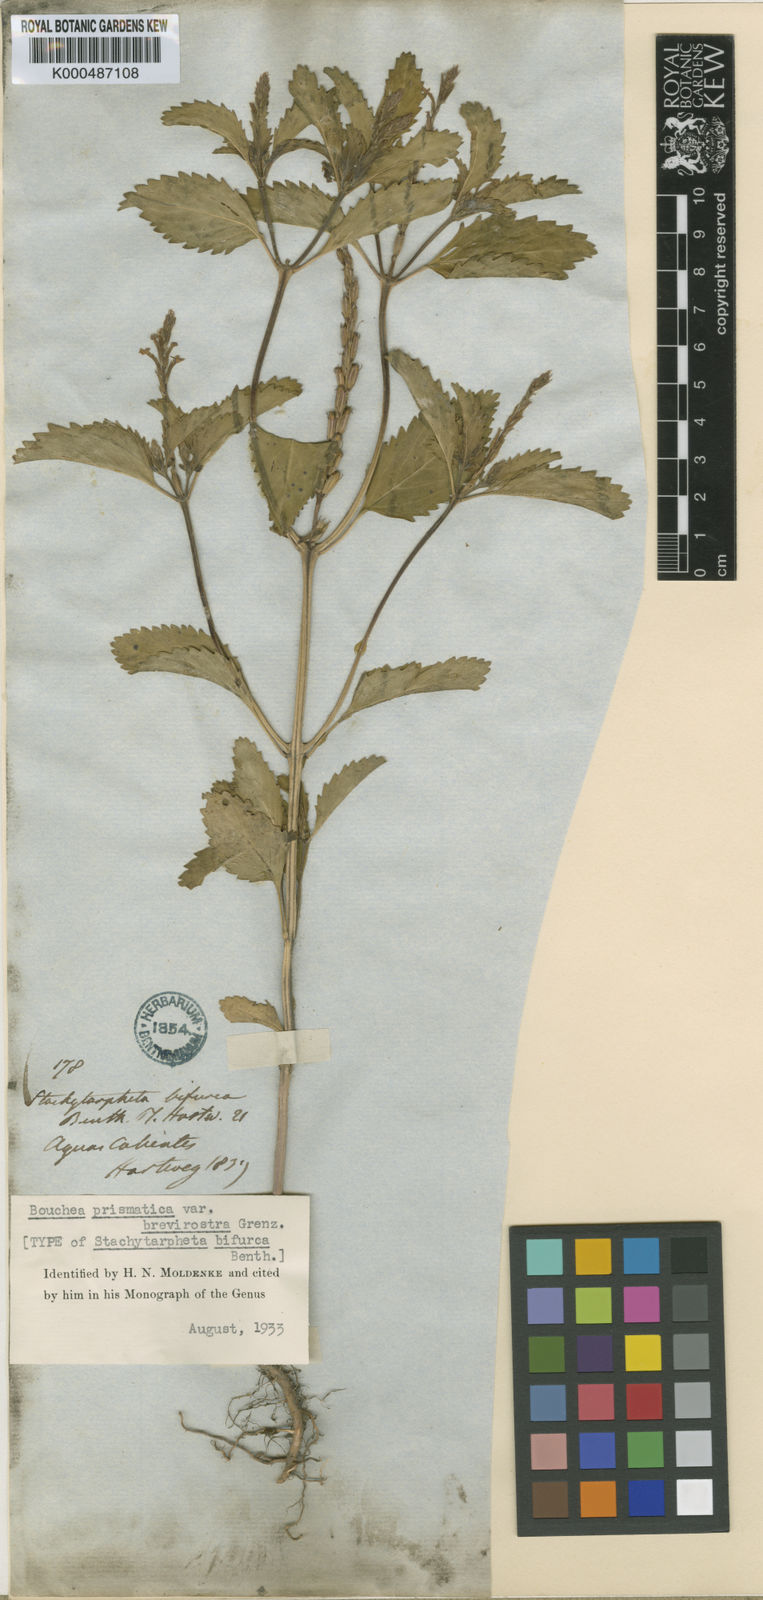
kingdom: Plantae
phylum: Tracheophyta
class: Magnoliopsida
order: Lamiales
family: Verbenaceae
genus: Bouchea
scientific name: Bouchea bifurca
